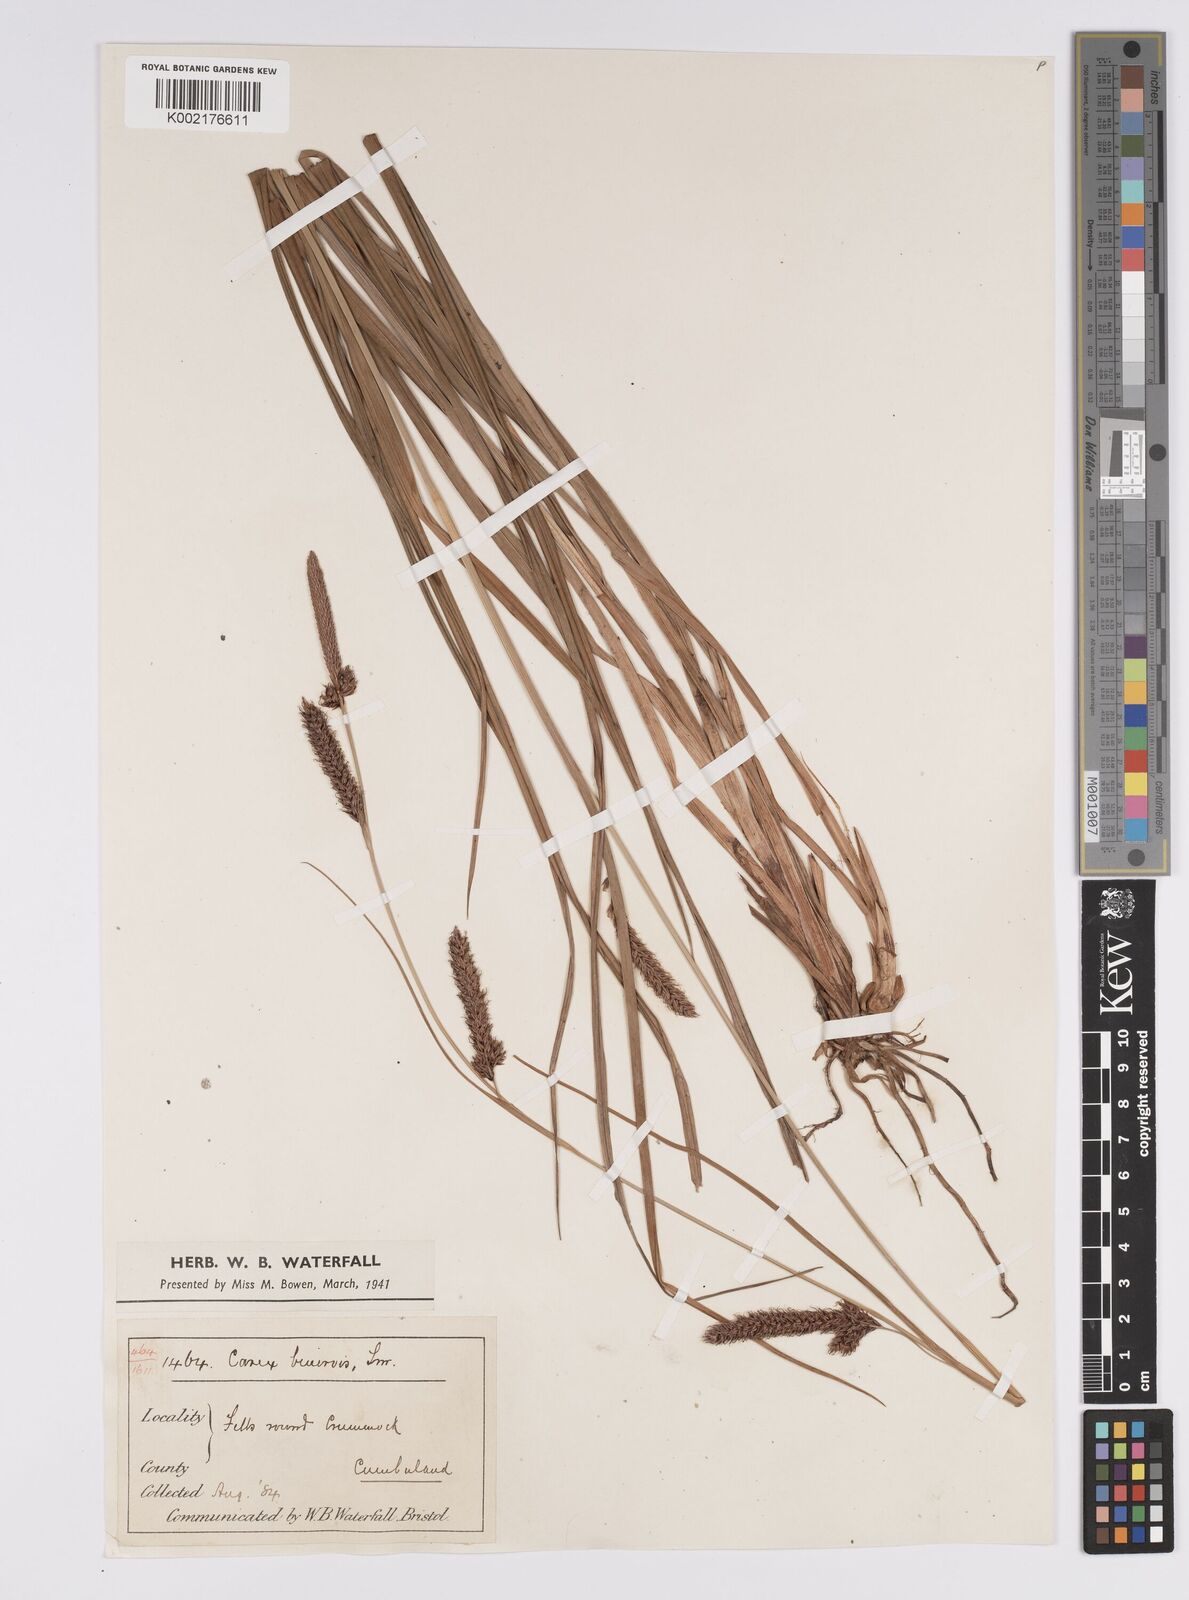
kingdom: Plantae
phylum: Tracheophyta
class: Liliopsida
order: Poales
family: Cyperaceae
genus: Carex
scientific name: Carex binervis
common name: Green-ribbed sedge
